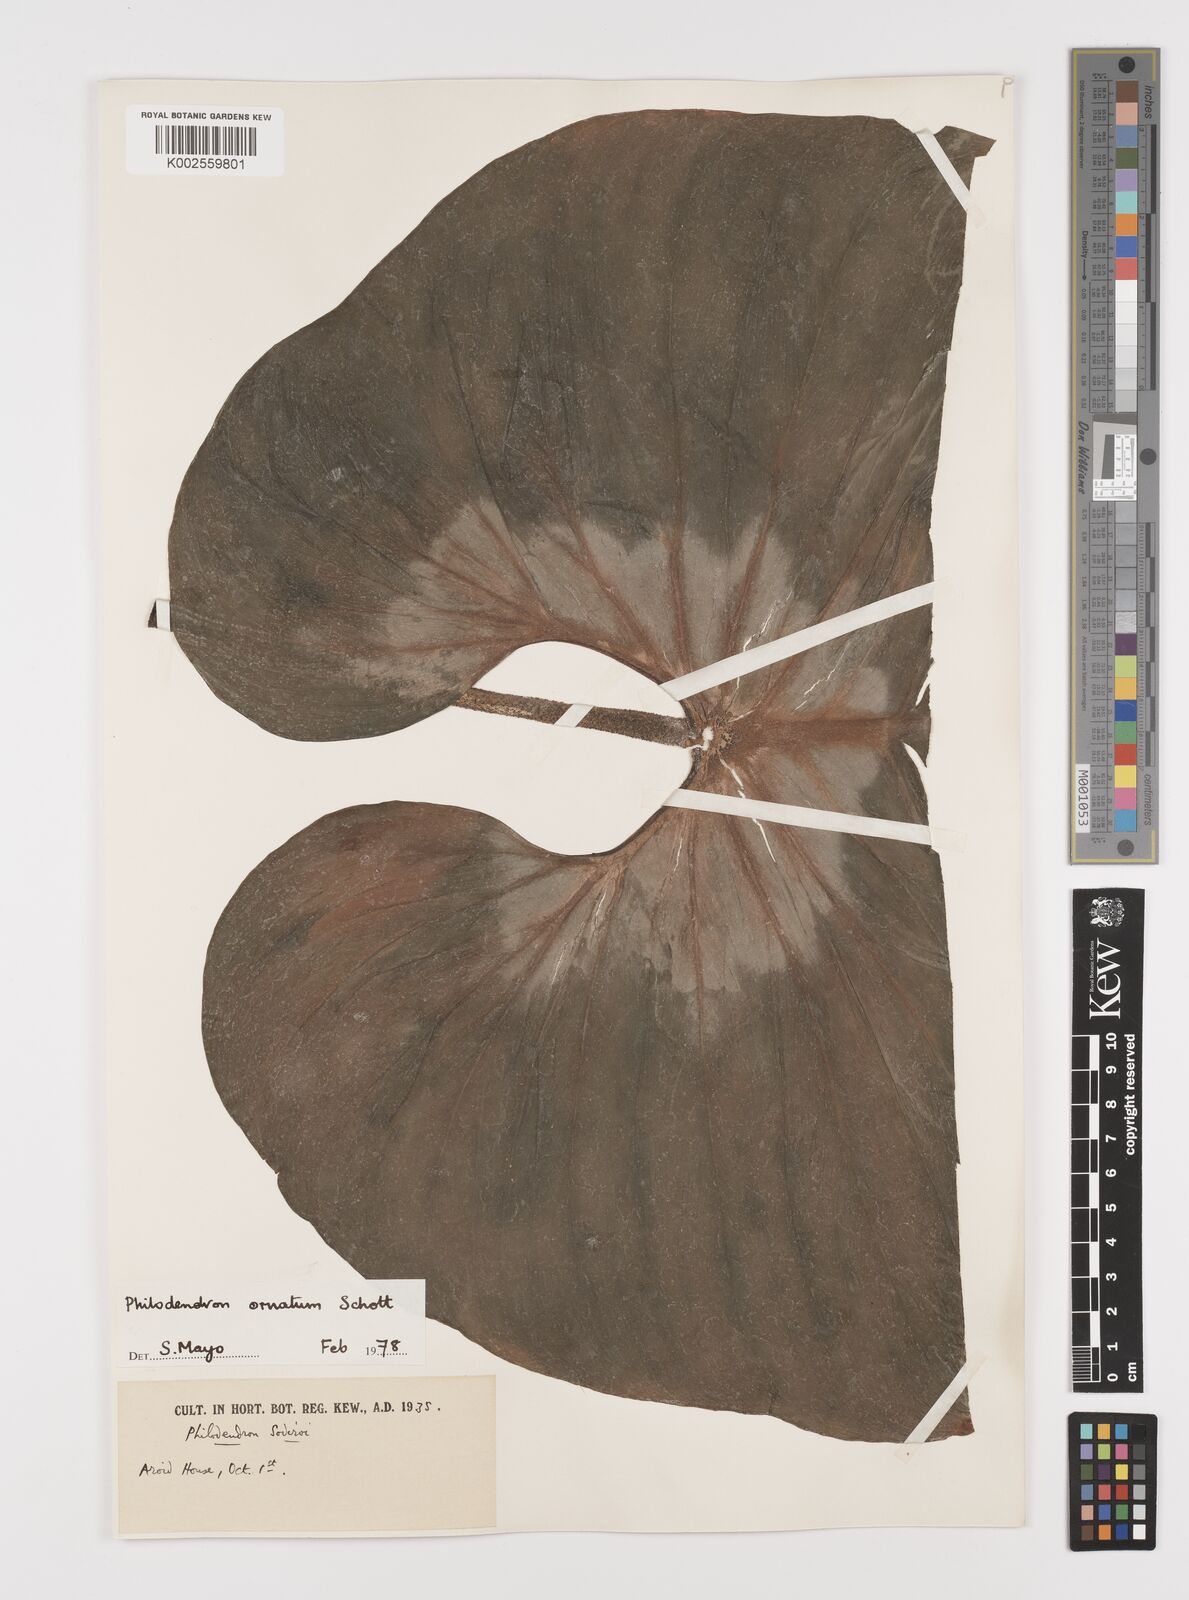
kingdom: Plantae
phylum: Tracheophyta
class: Liliopsida
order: Alismatales
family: Araceae
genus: Philodendron
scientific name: Philodendron ornatum
